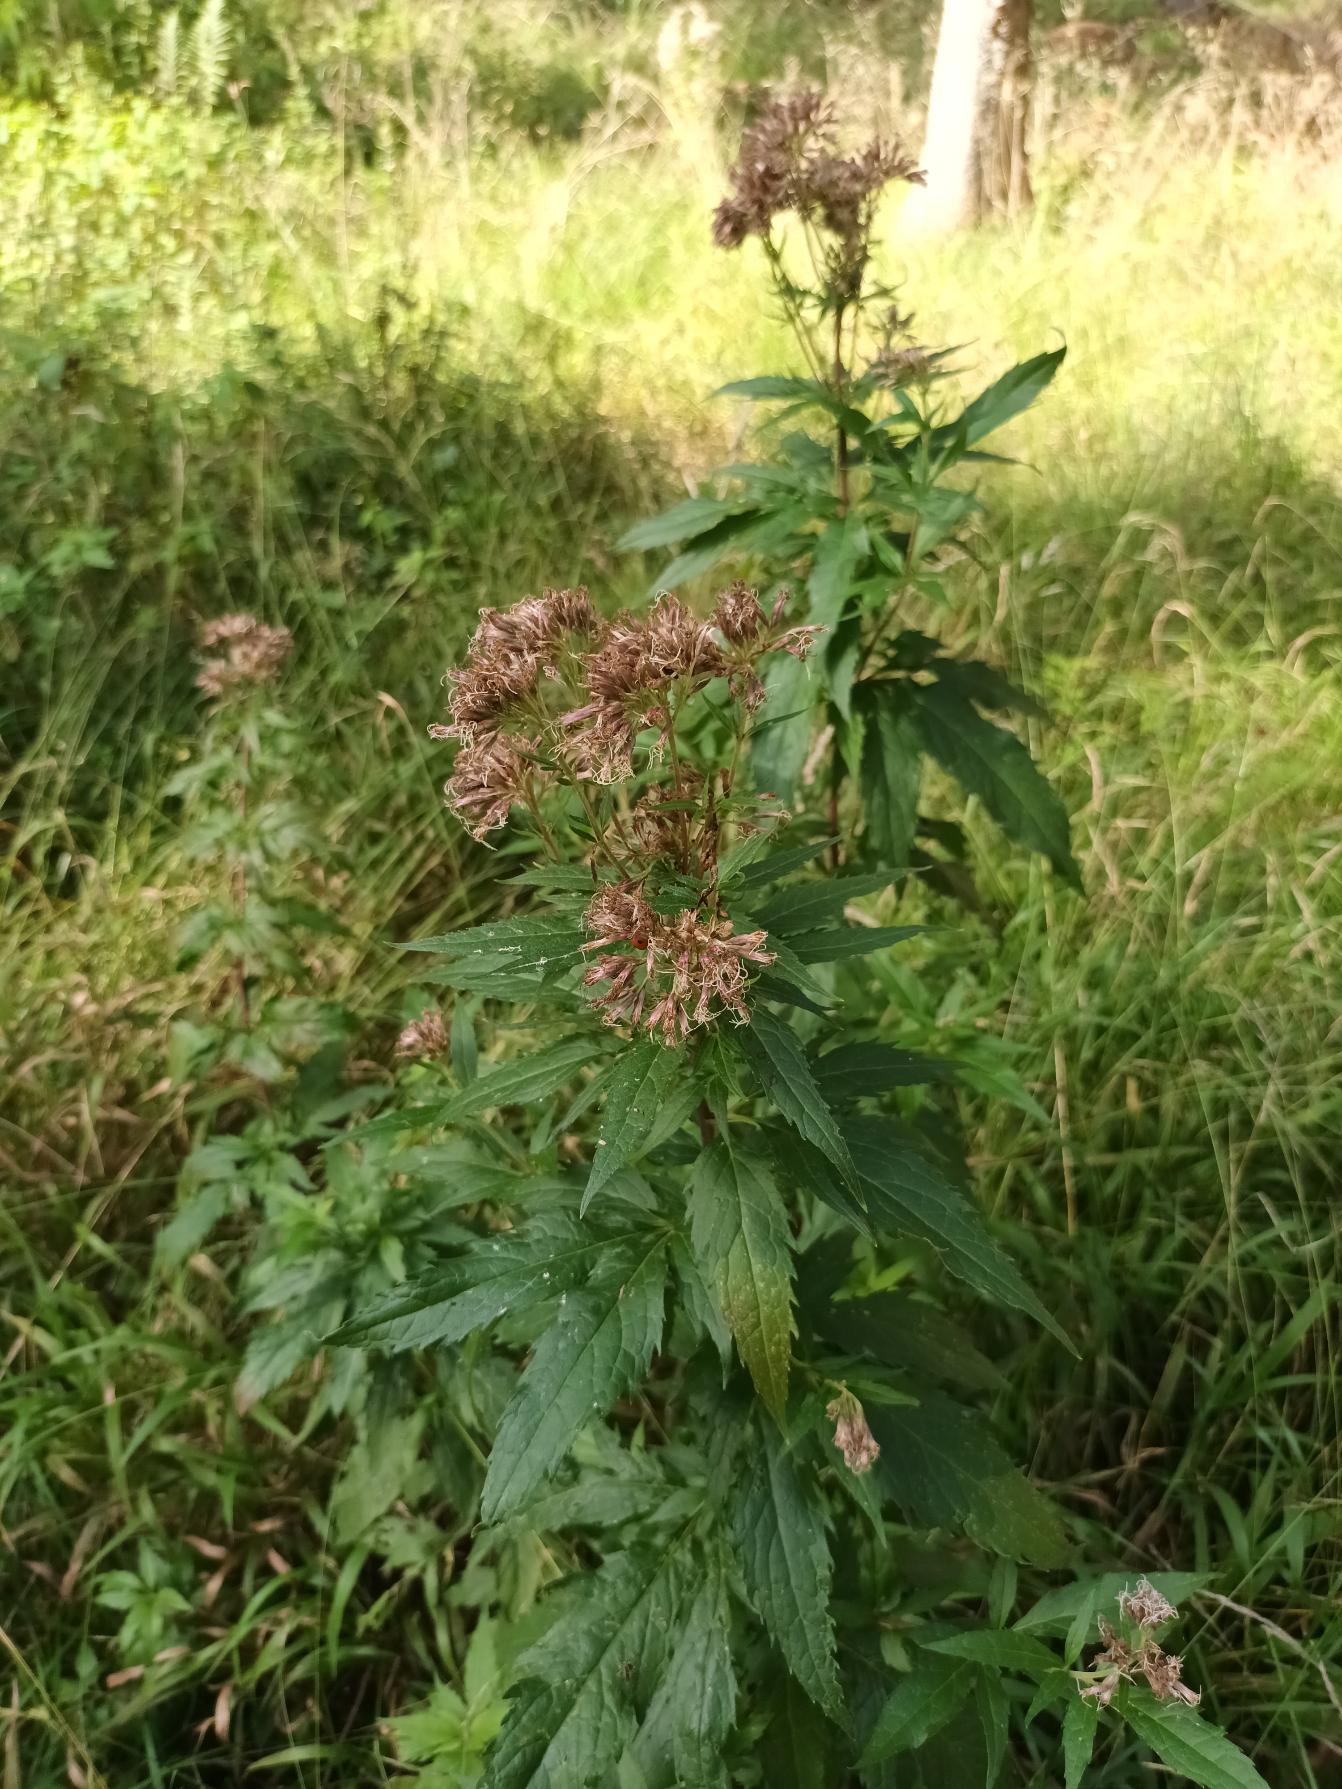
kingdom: Plantae
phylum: Tracheophyta
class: Magnoliopsida
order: Asterales
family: Asteraceae
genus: Eupatorium
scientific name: Eupatorium cannabinum
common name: Hjortetrøst
